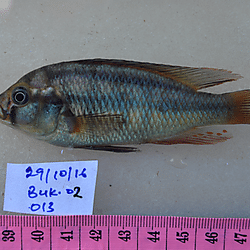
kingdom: Animalia
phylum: Chordata
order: Perciformes
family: Cichlidae
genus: Paralabidochromis
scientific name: Paralabidochromis
